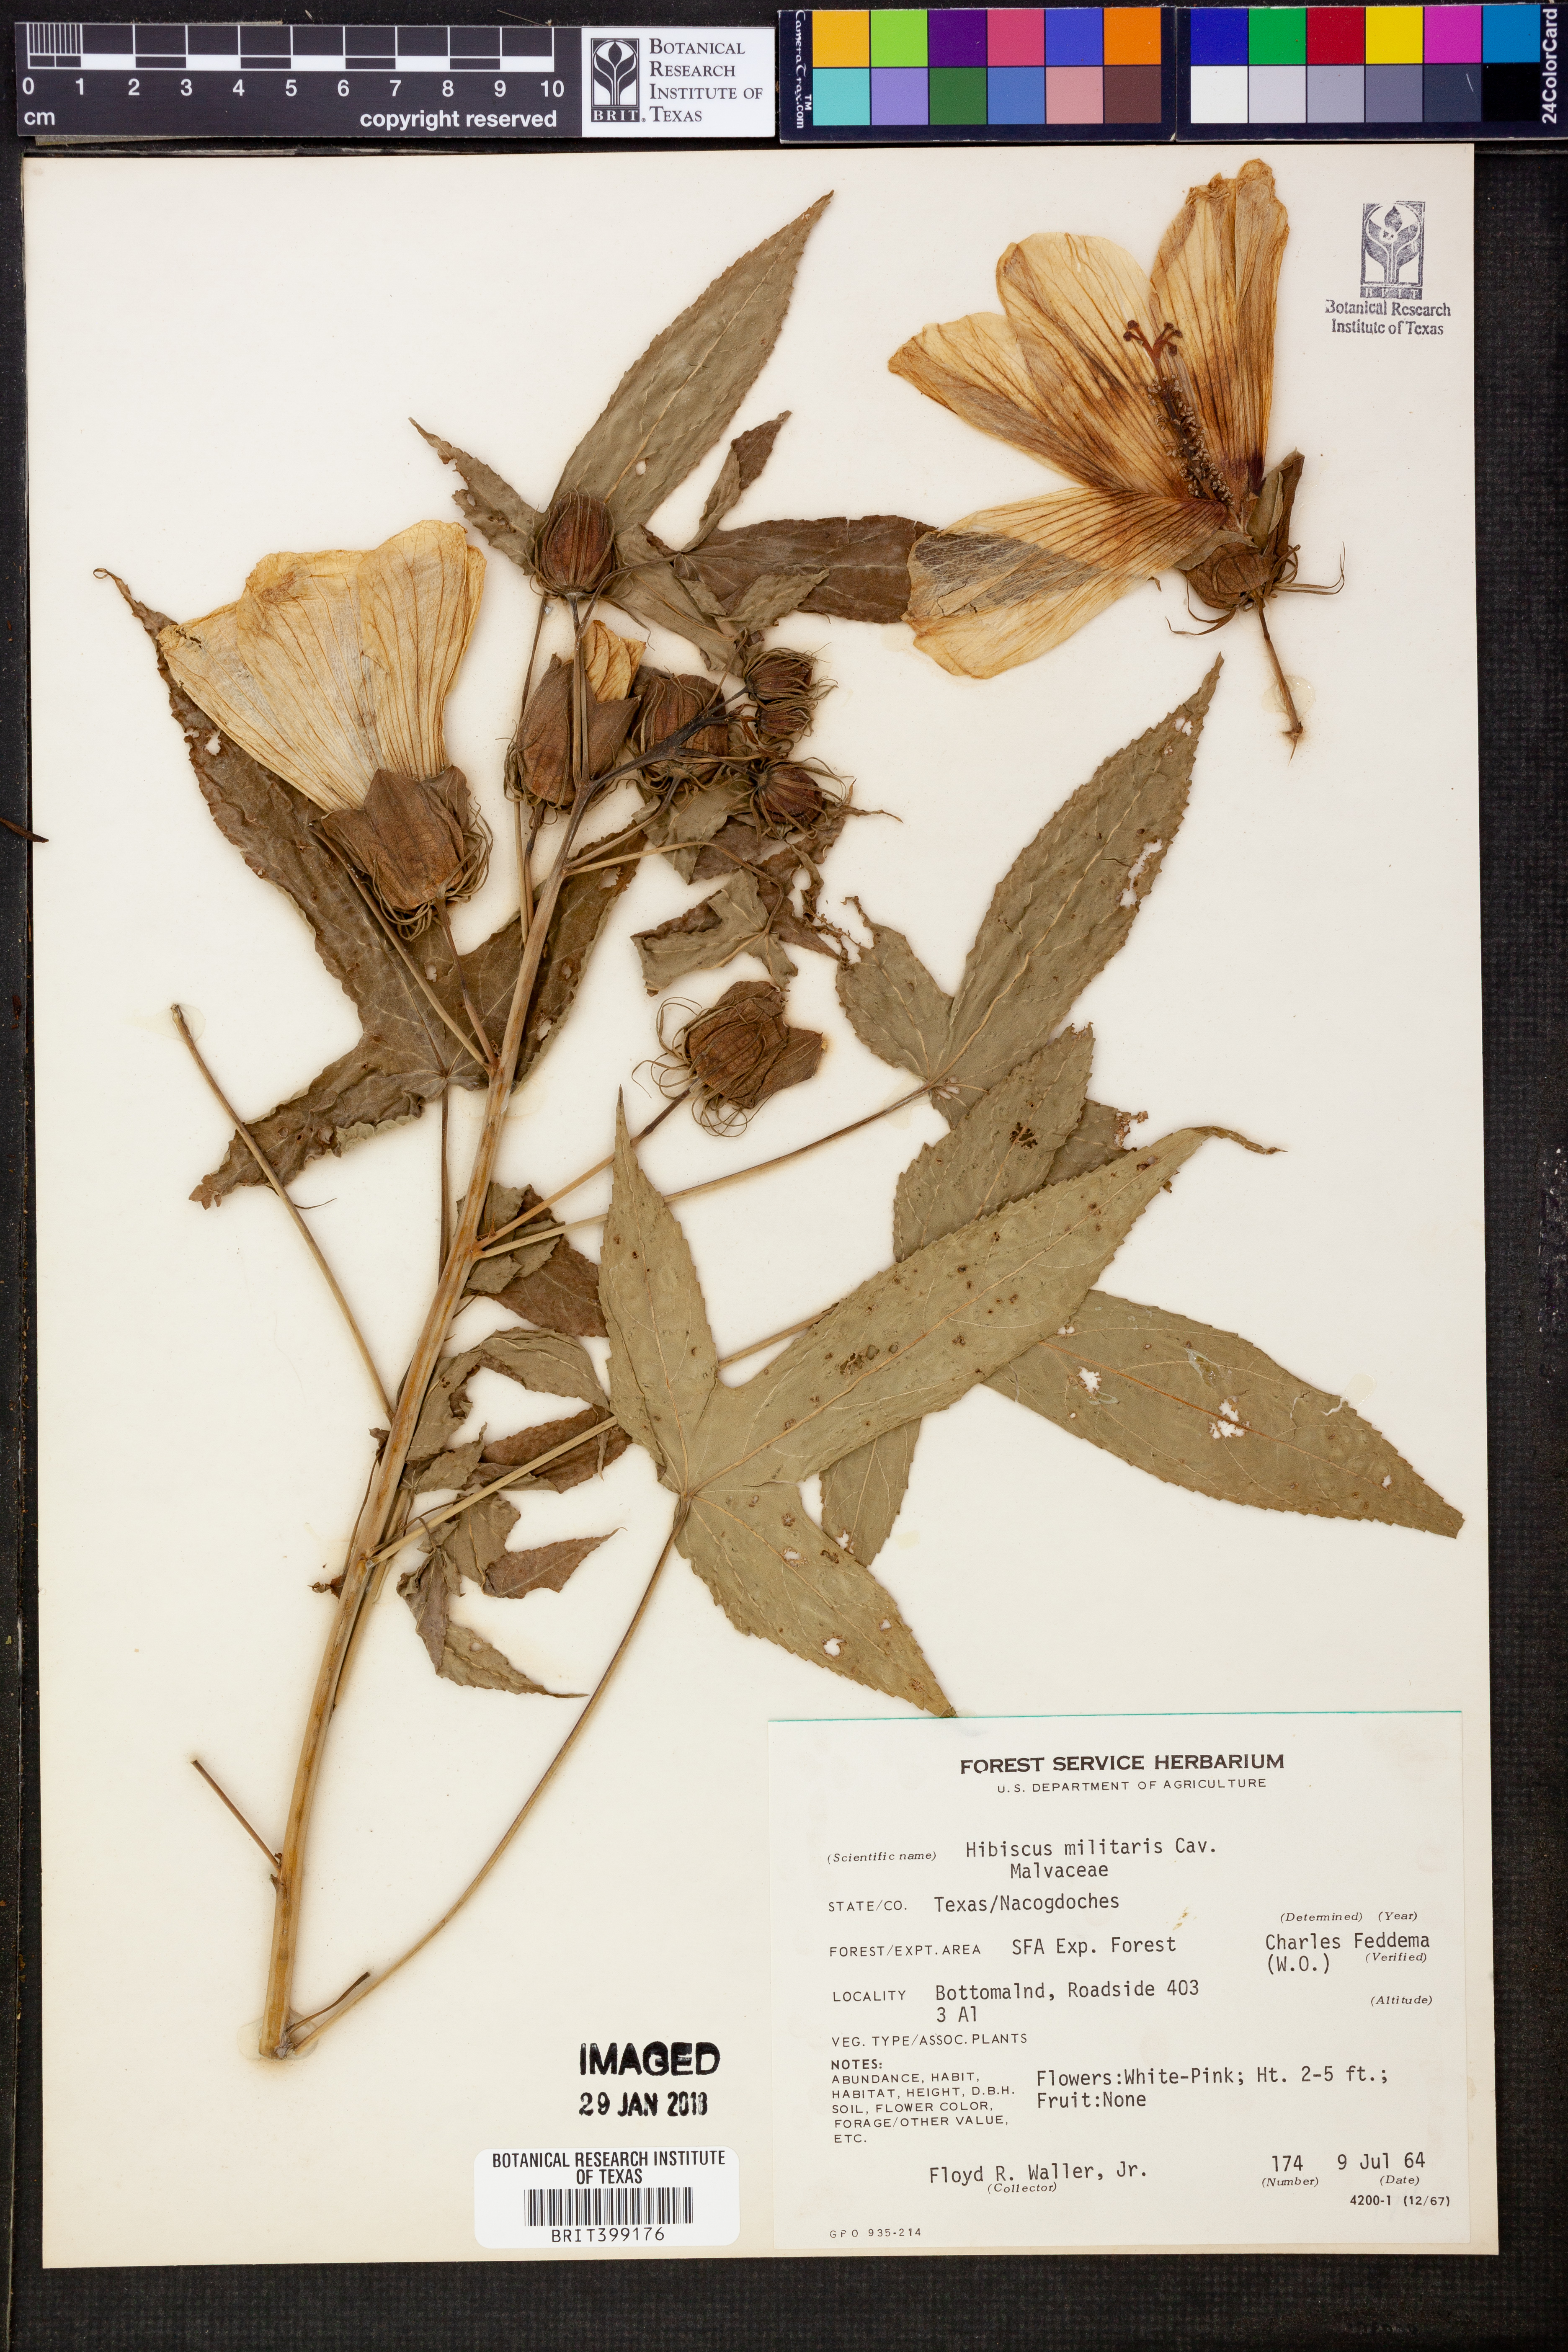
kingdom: Plantae
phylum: Tracheophyta
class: Magnoliopsida
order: Malvales
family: Malvaceae
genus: Hibiscus
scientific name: Hibiscus laevis
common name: Scarlet rose-mallow
